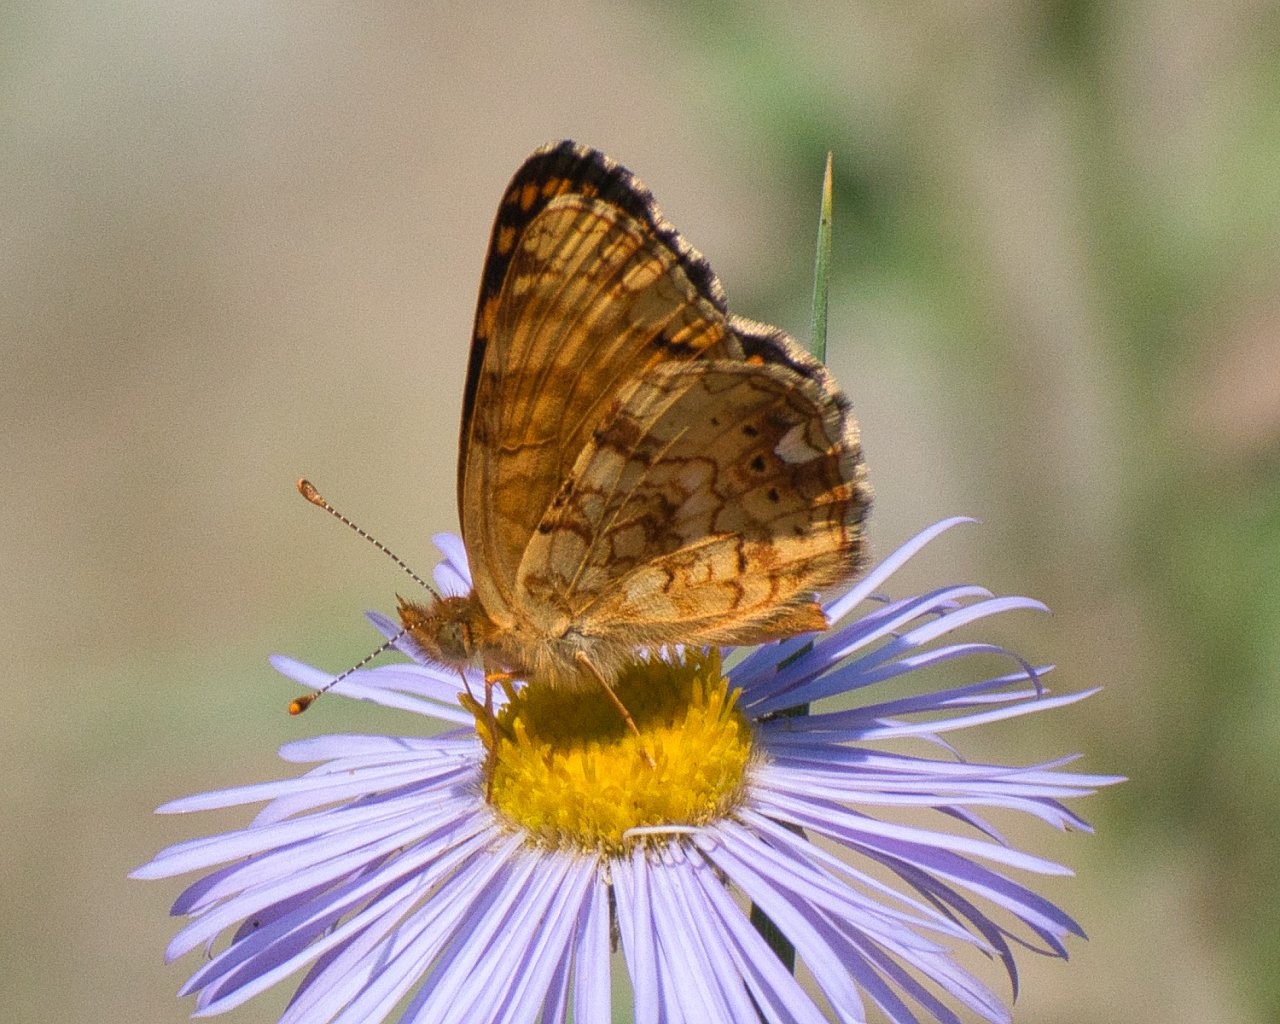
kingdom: Animalia
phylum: Arthropoda
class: Insecta
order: Lepidoptera
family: Nymphalidae
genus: Eresia
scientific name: Eresia aveyrona
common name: Mylitta Crescent
